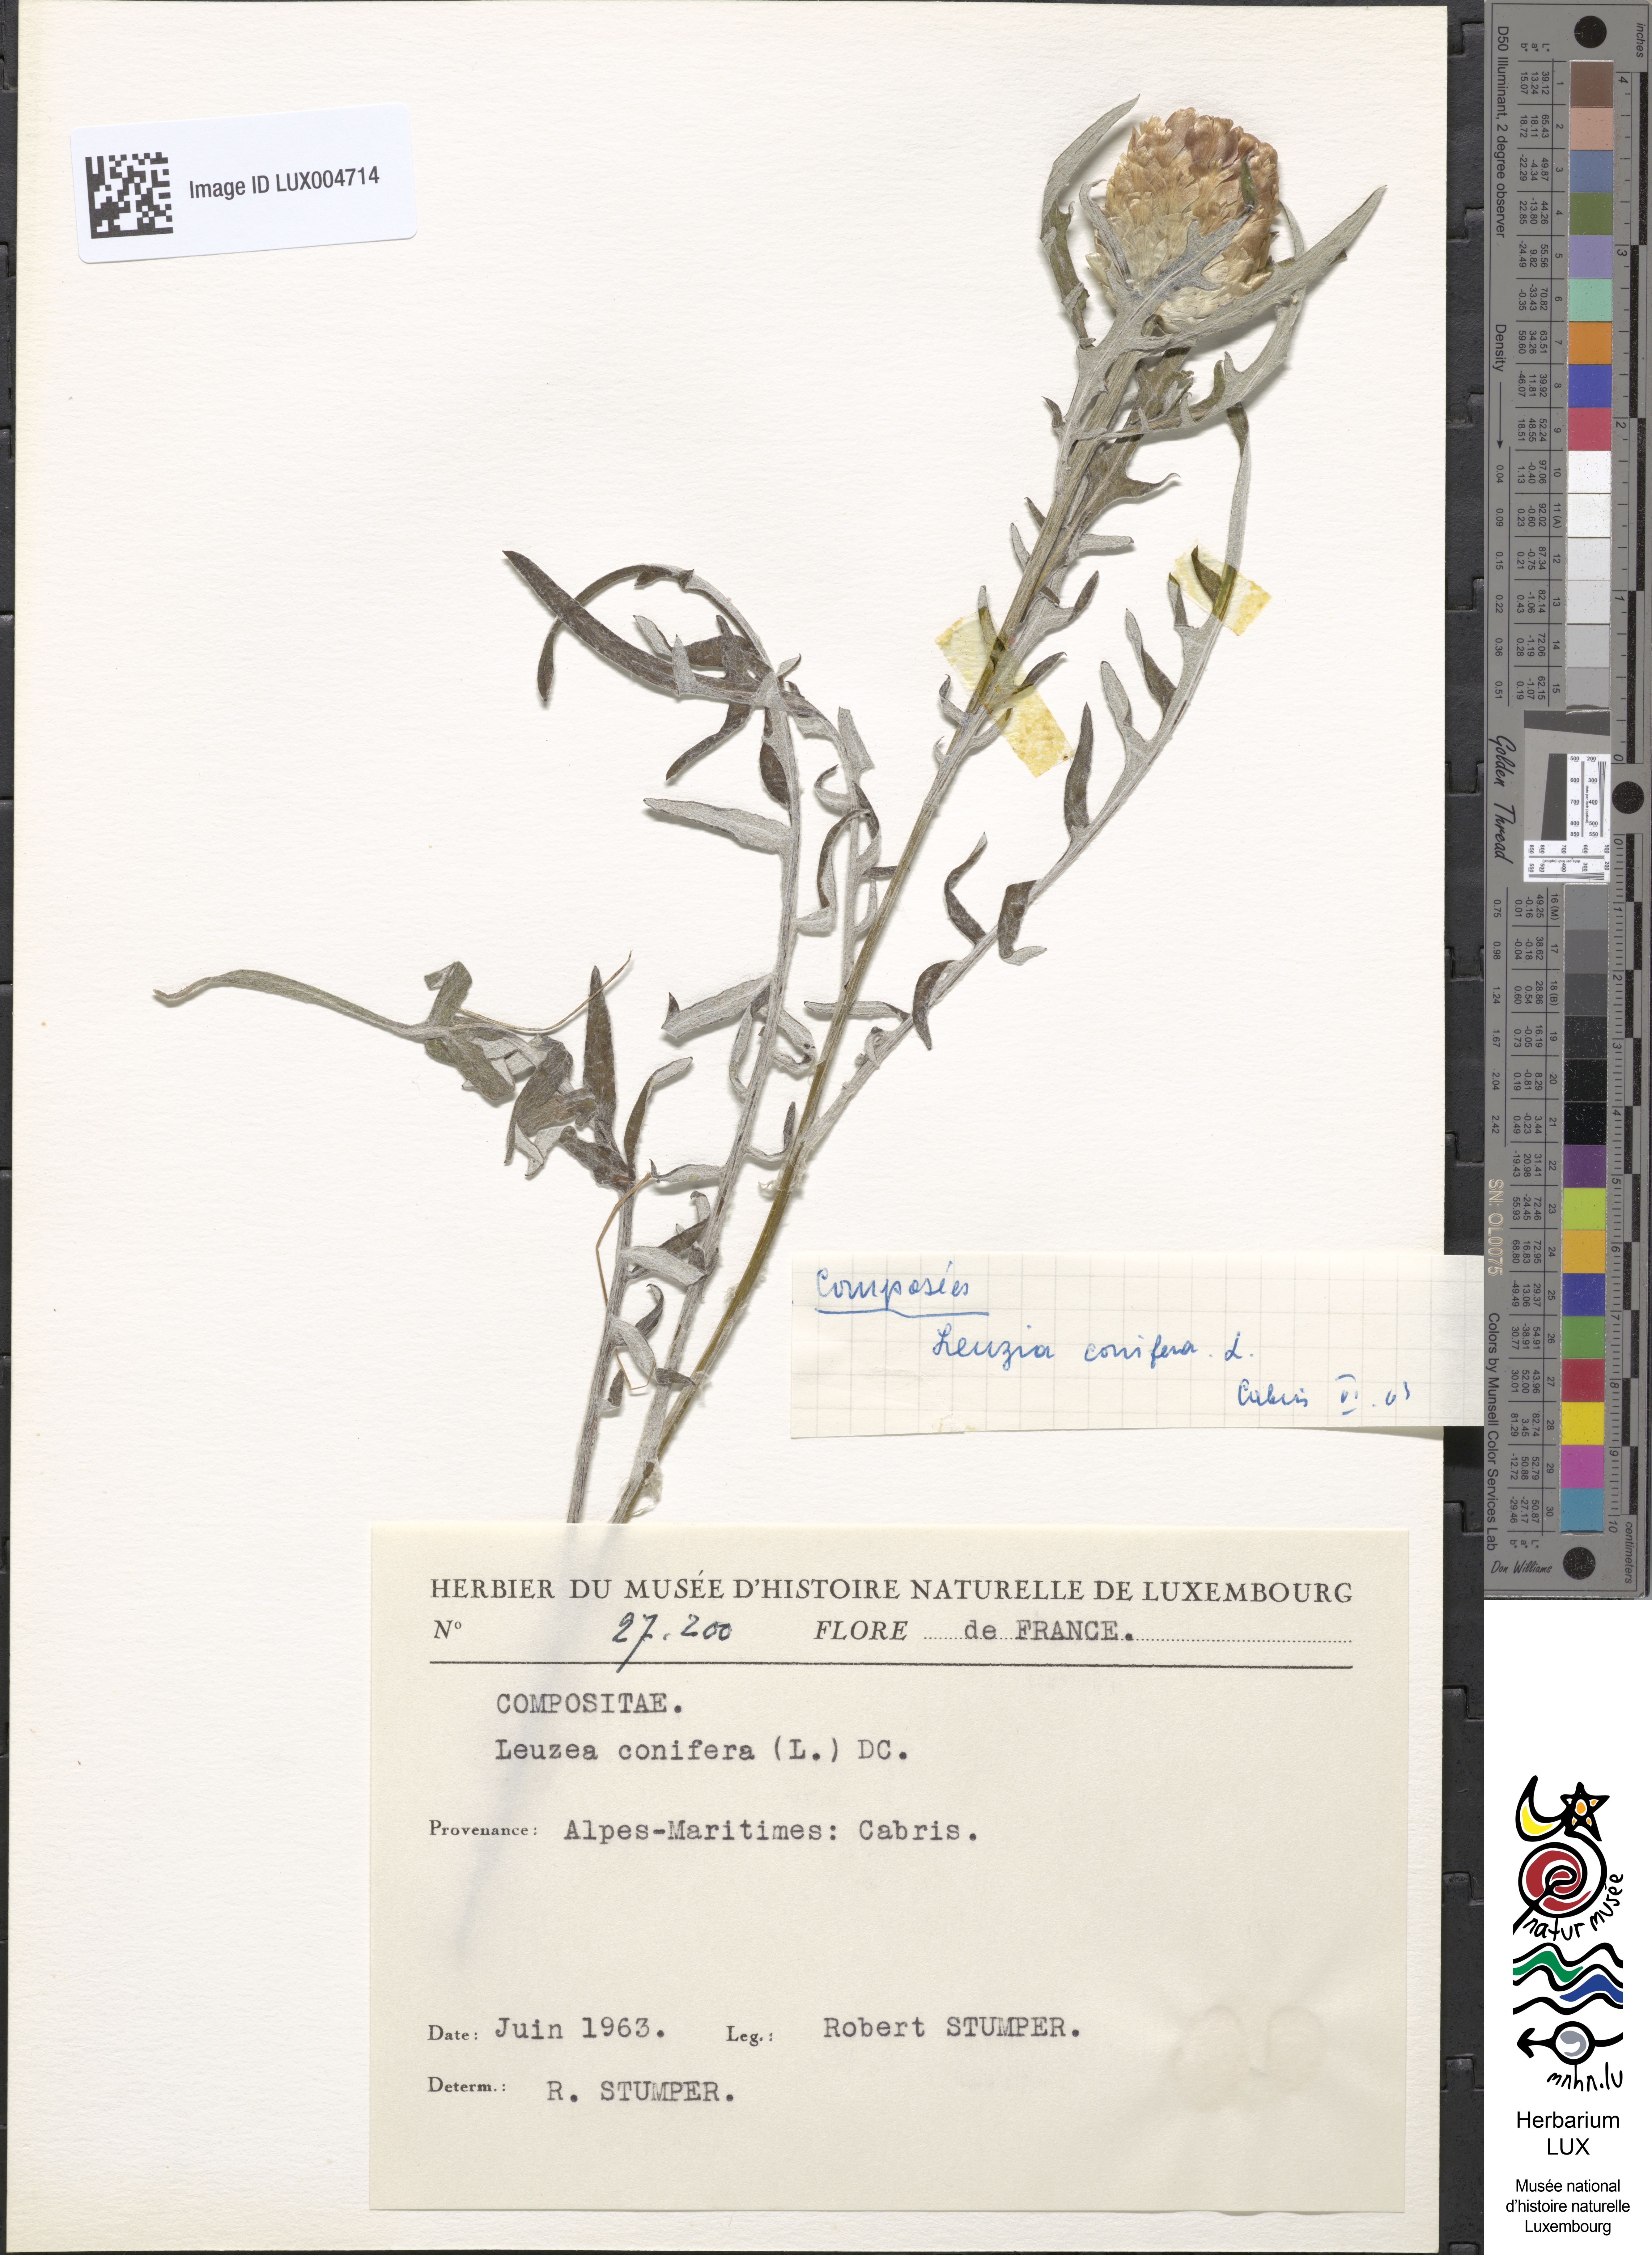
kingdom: Plantae
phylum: Tracheophyta
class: Magnoliopsida
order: Asterales
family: Asteraceae
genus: Leuzea
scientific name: Leuzea conifera
